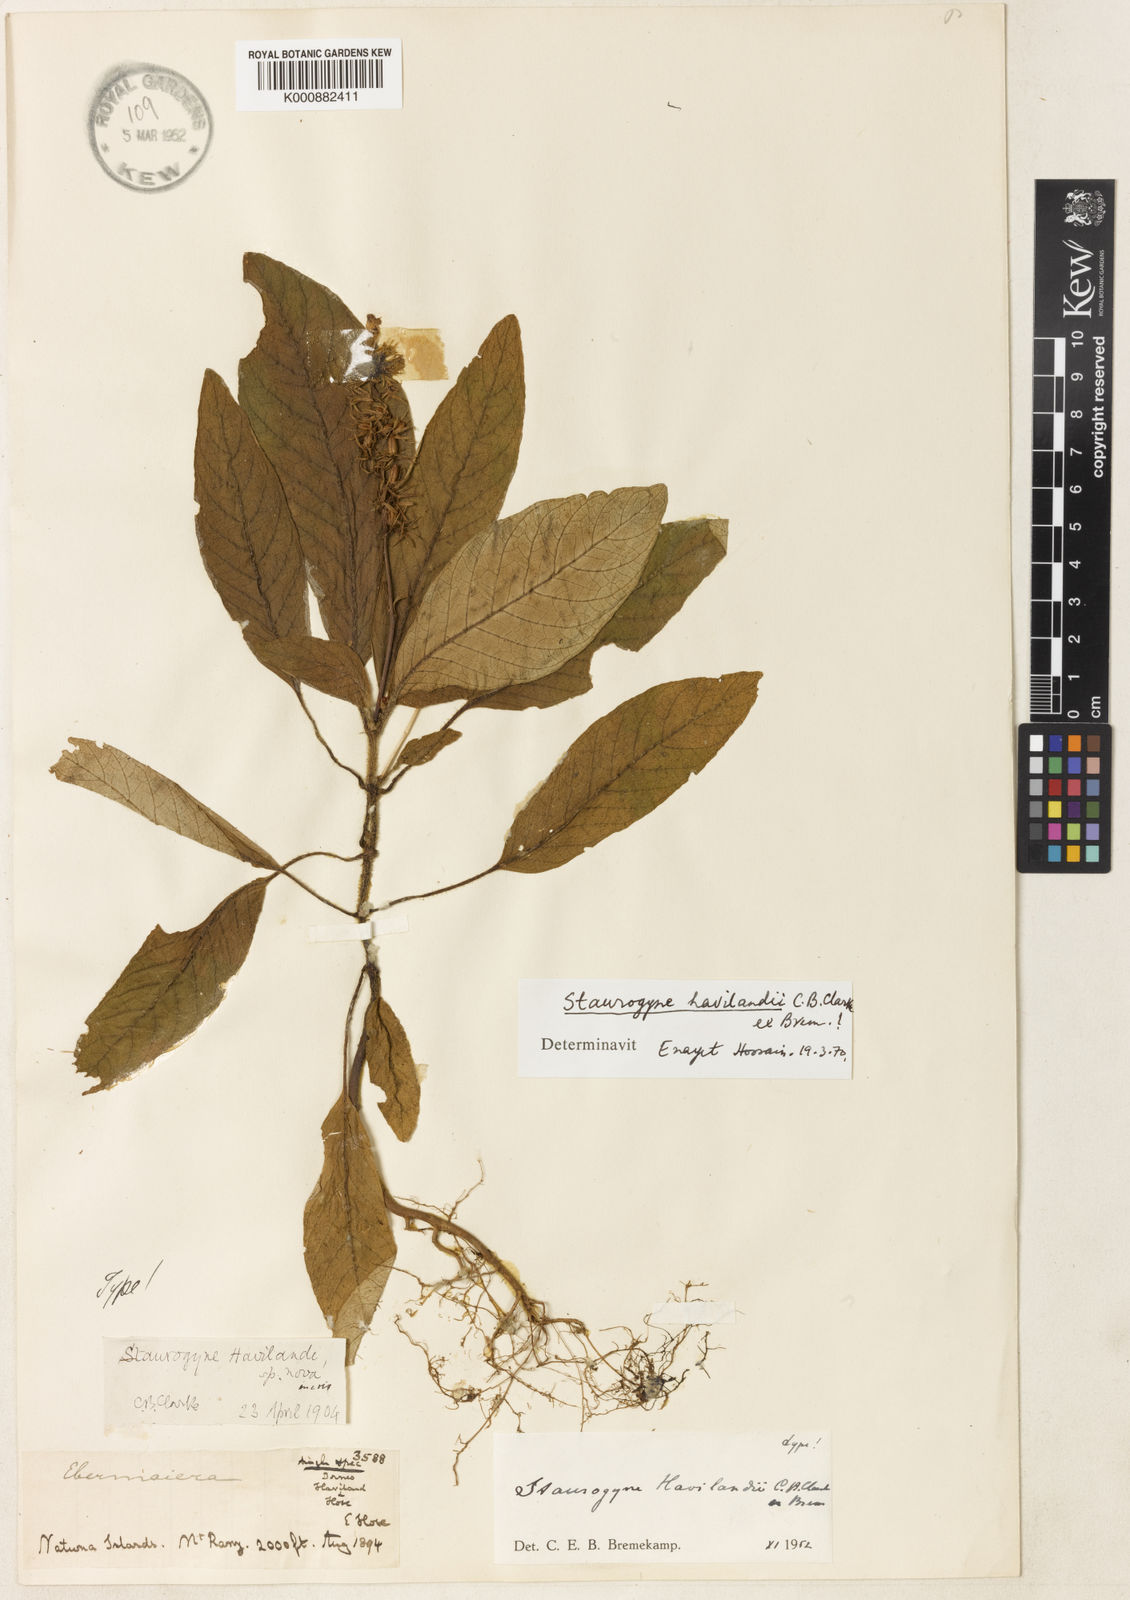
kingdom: Plantae
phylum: Tracheophyta
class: Magnoliopsida
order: Lamiales
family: Acanthaceae
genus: Staurogyne
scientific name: Staurogyne havilandii
